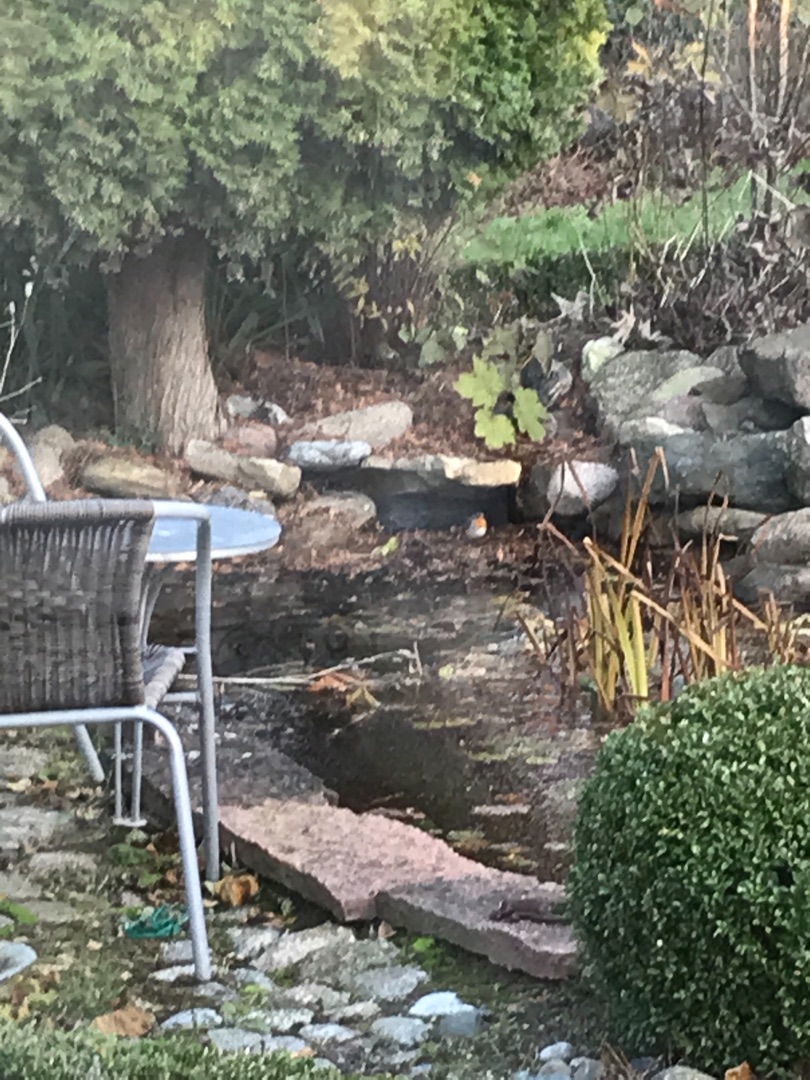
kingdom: Animalia
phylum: Chordata
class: Aves
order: Passeriformes
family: Muscicapidae
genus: Erithacus
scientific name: Erithacus rubecula
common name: Rødhals/rødkælk
